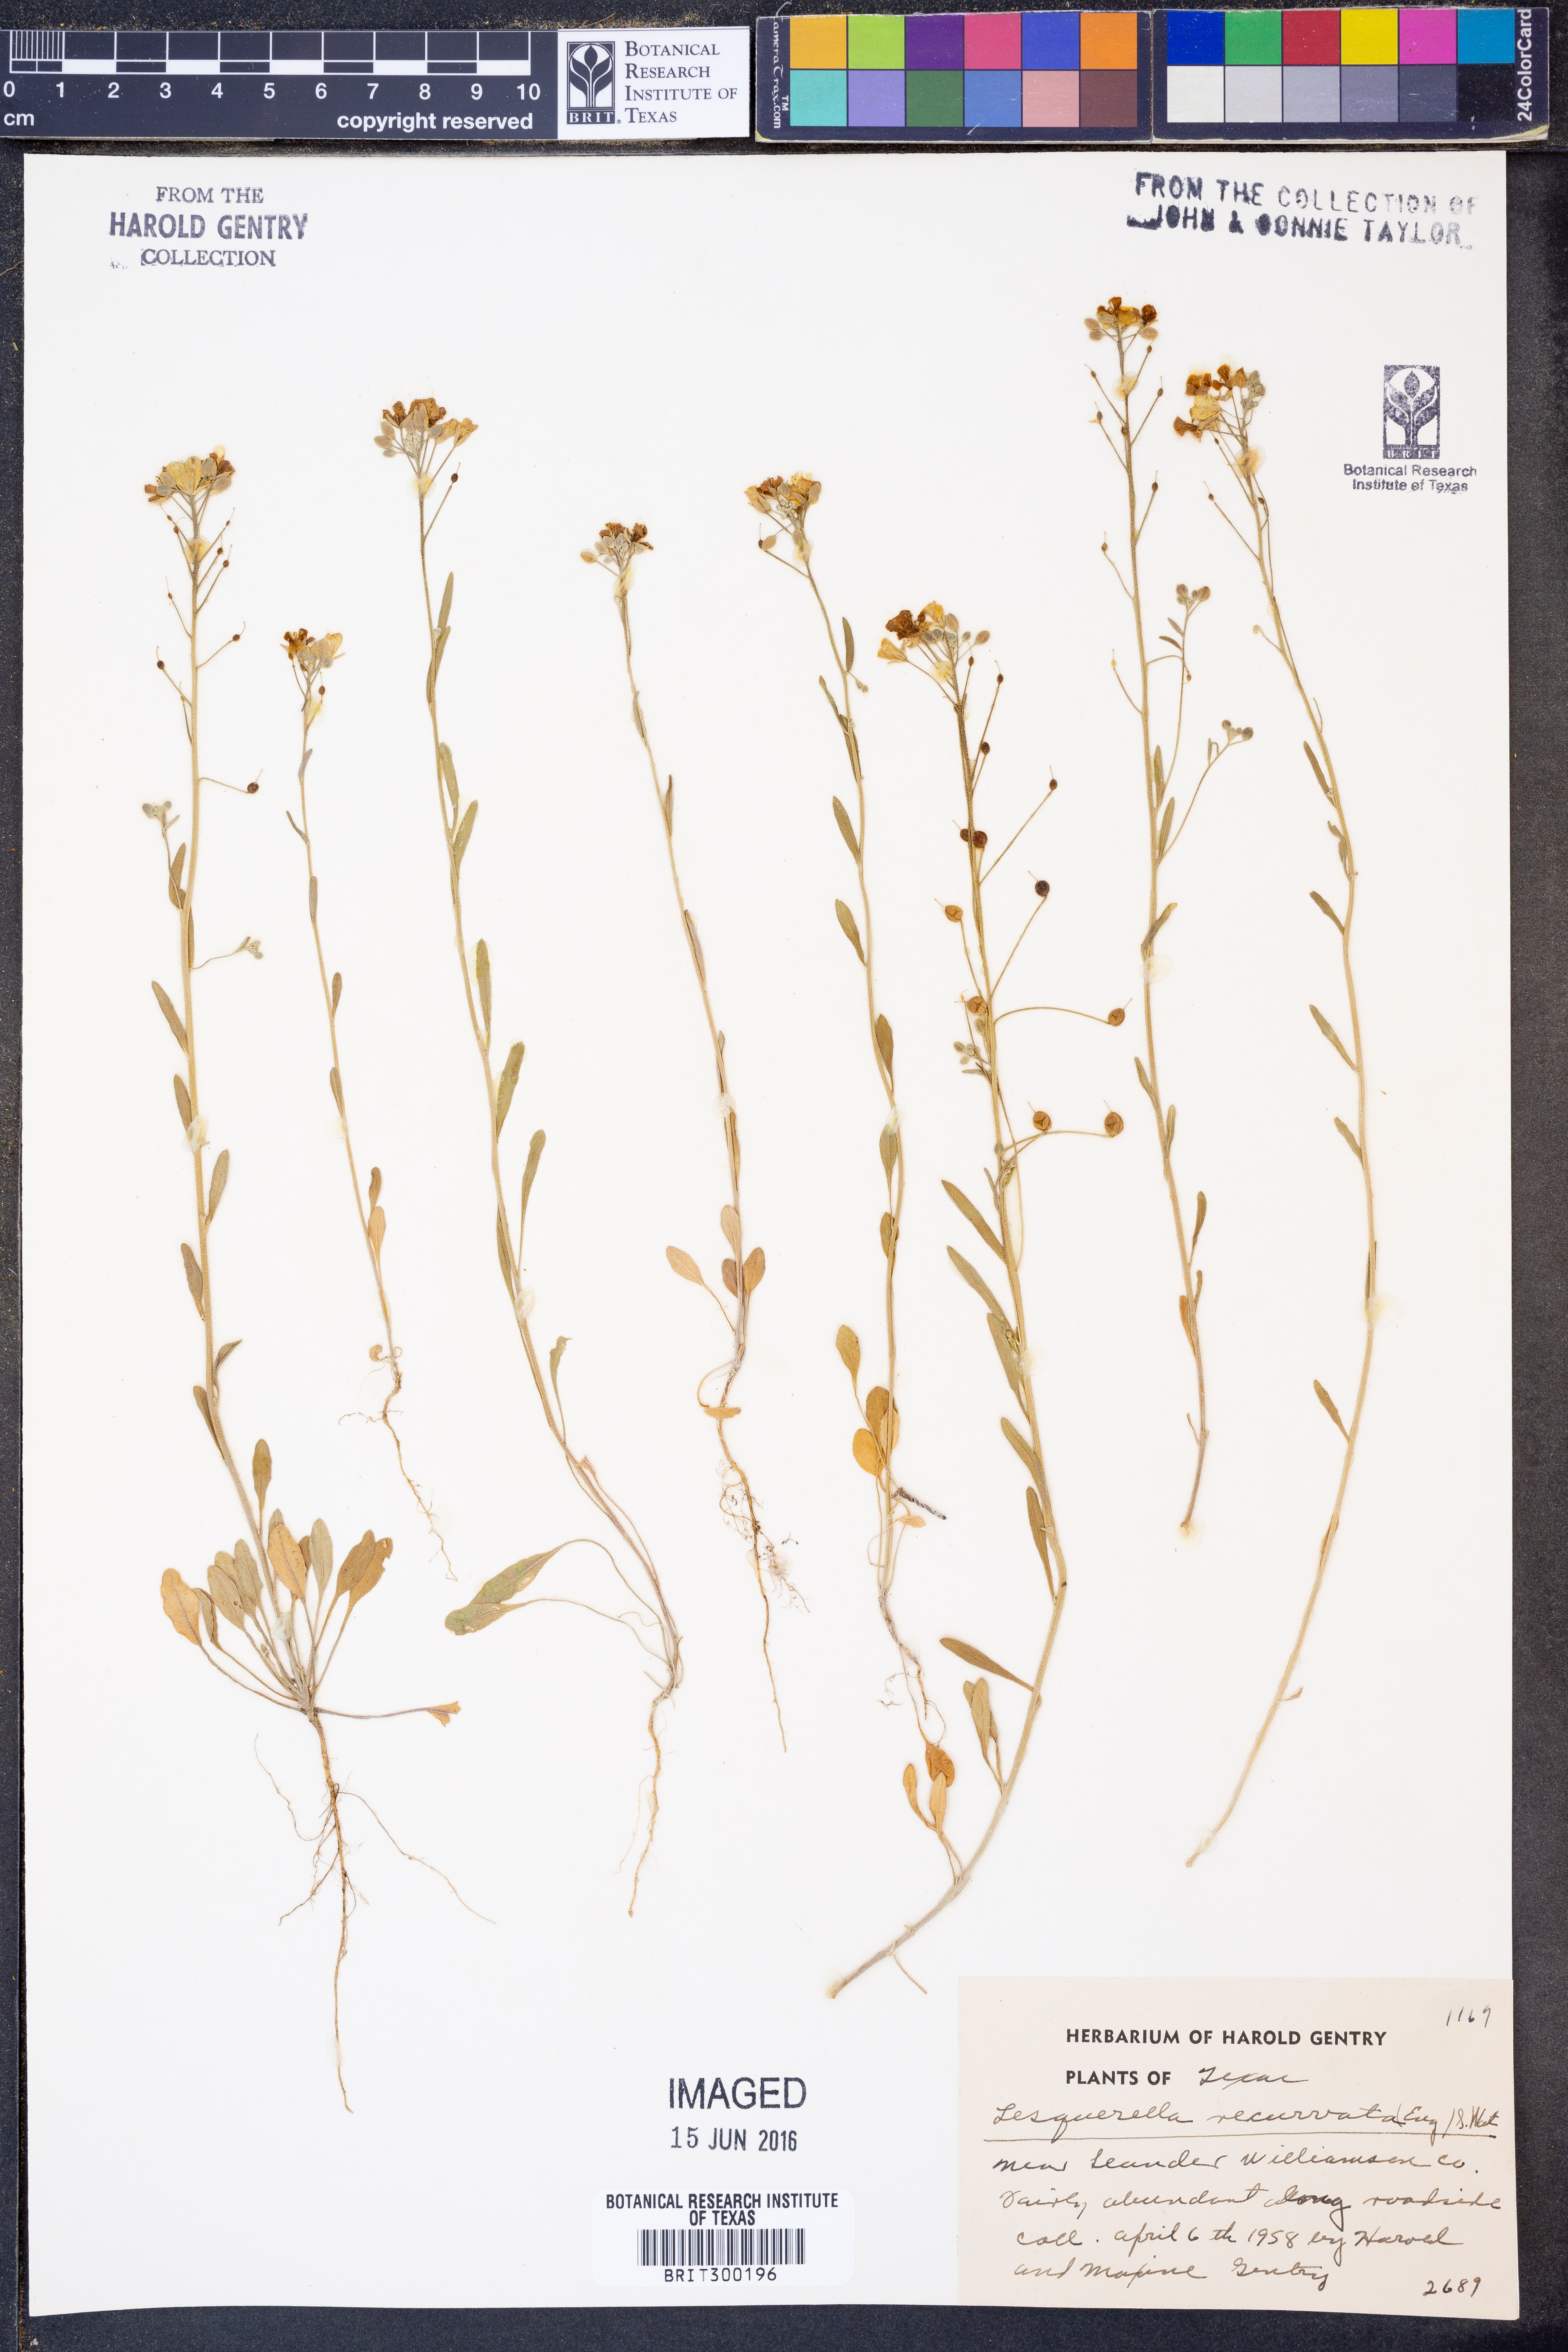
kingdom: Plantae
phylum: Tracheophyta
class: Magnoliopsida
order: Brassicales
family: Brassicaceae
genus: Physaria
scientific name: Physaria recurvata
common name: Gaslight bladderpod
